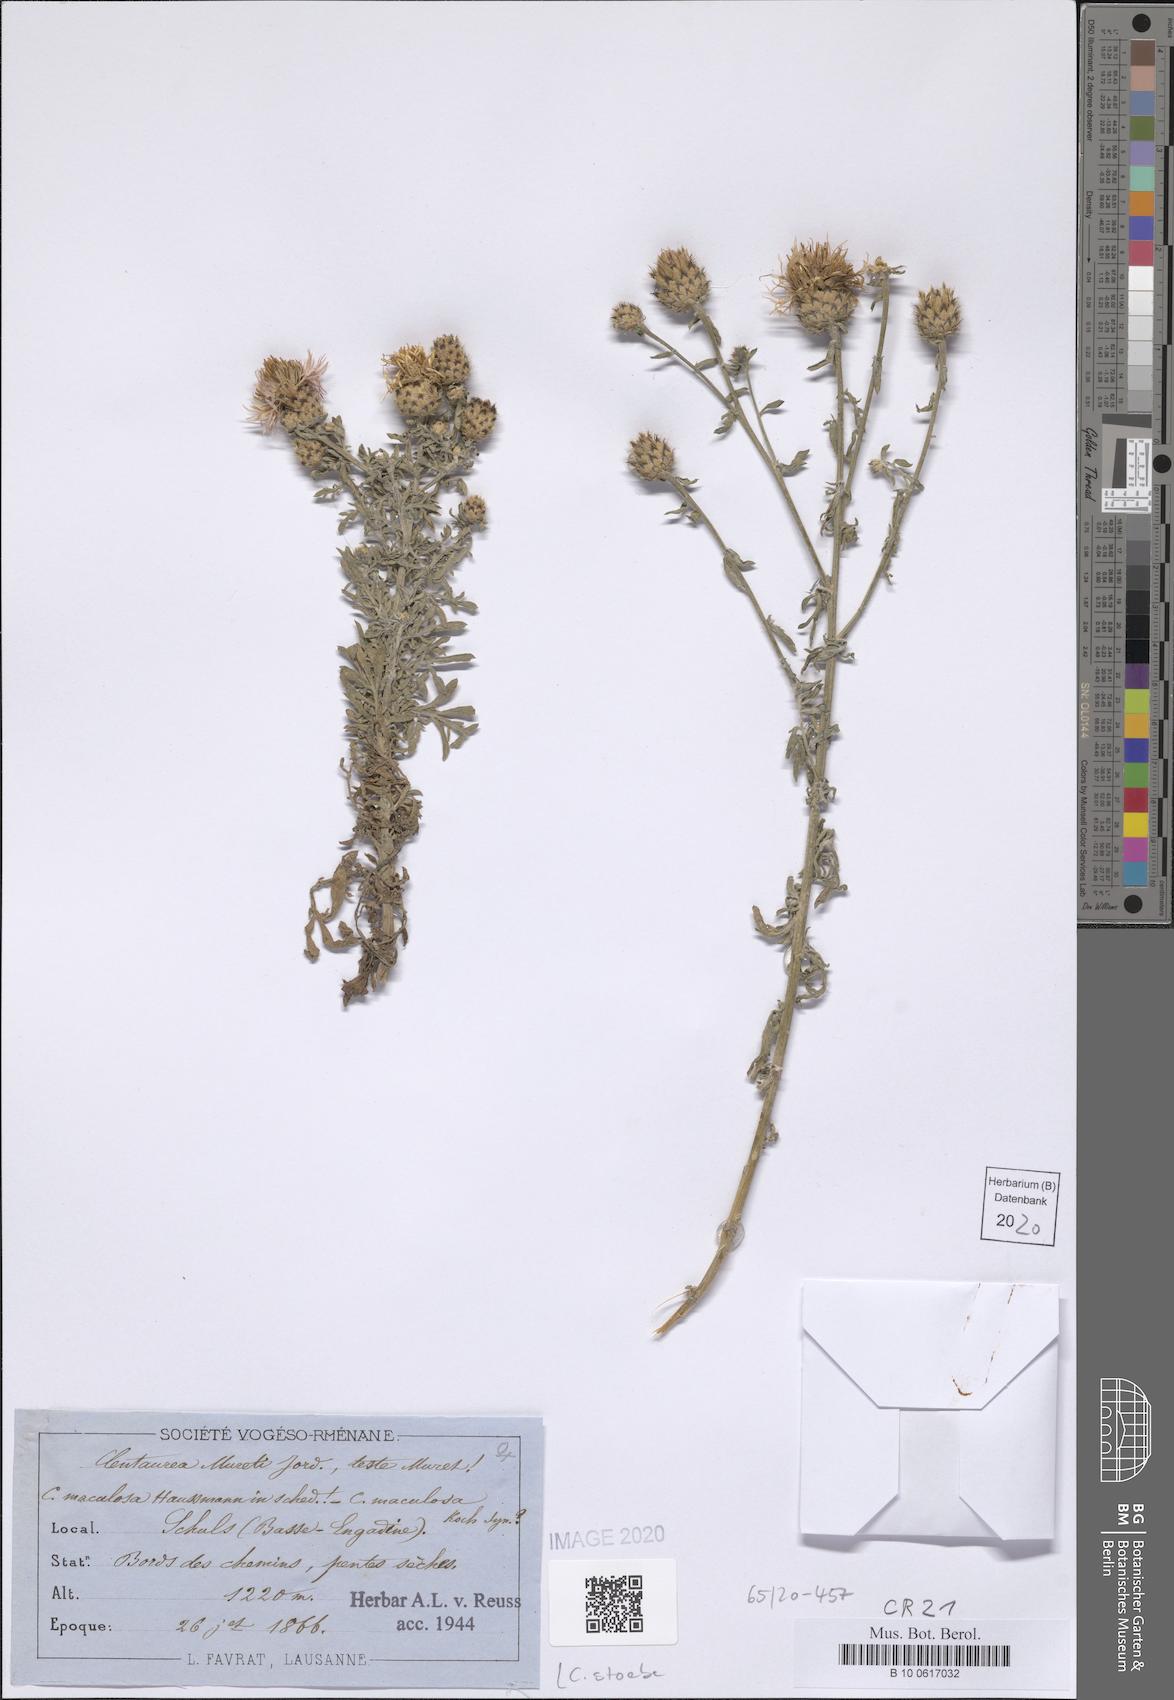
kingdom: Plantae
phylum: Tracheophyta
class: Magnoliopsida
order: Asterales
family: Asteraceae
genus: Centaurea
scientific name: Centaurea stoebe
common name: Spotted knapweed
